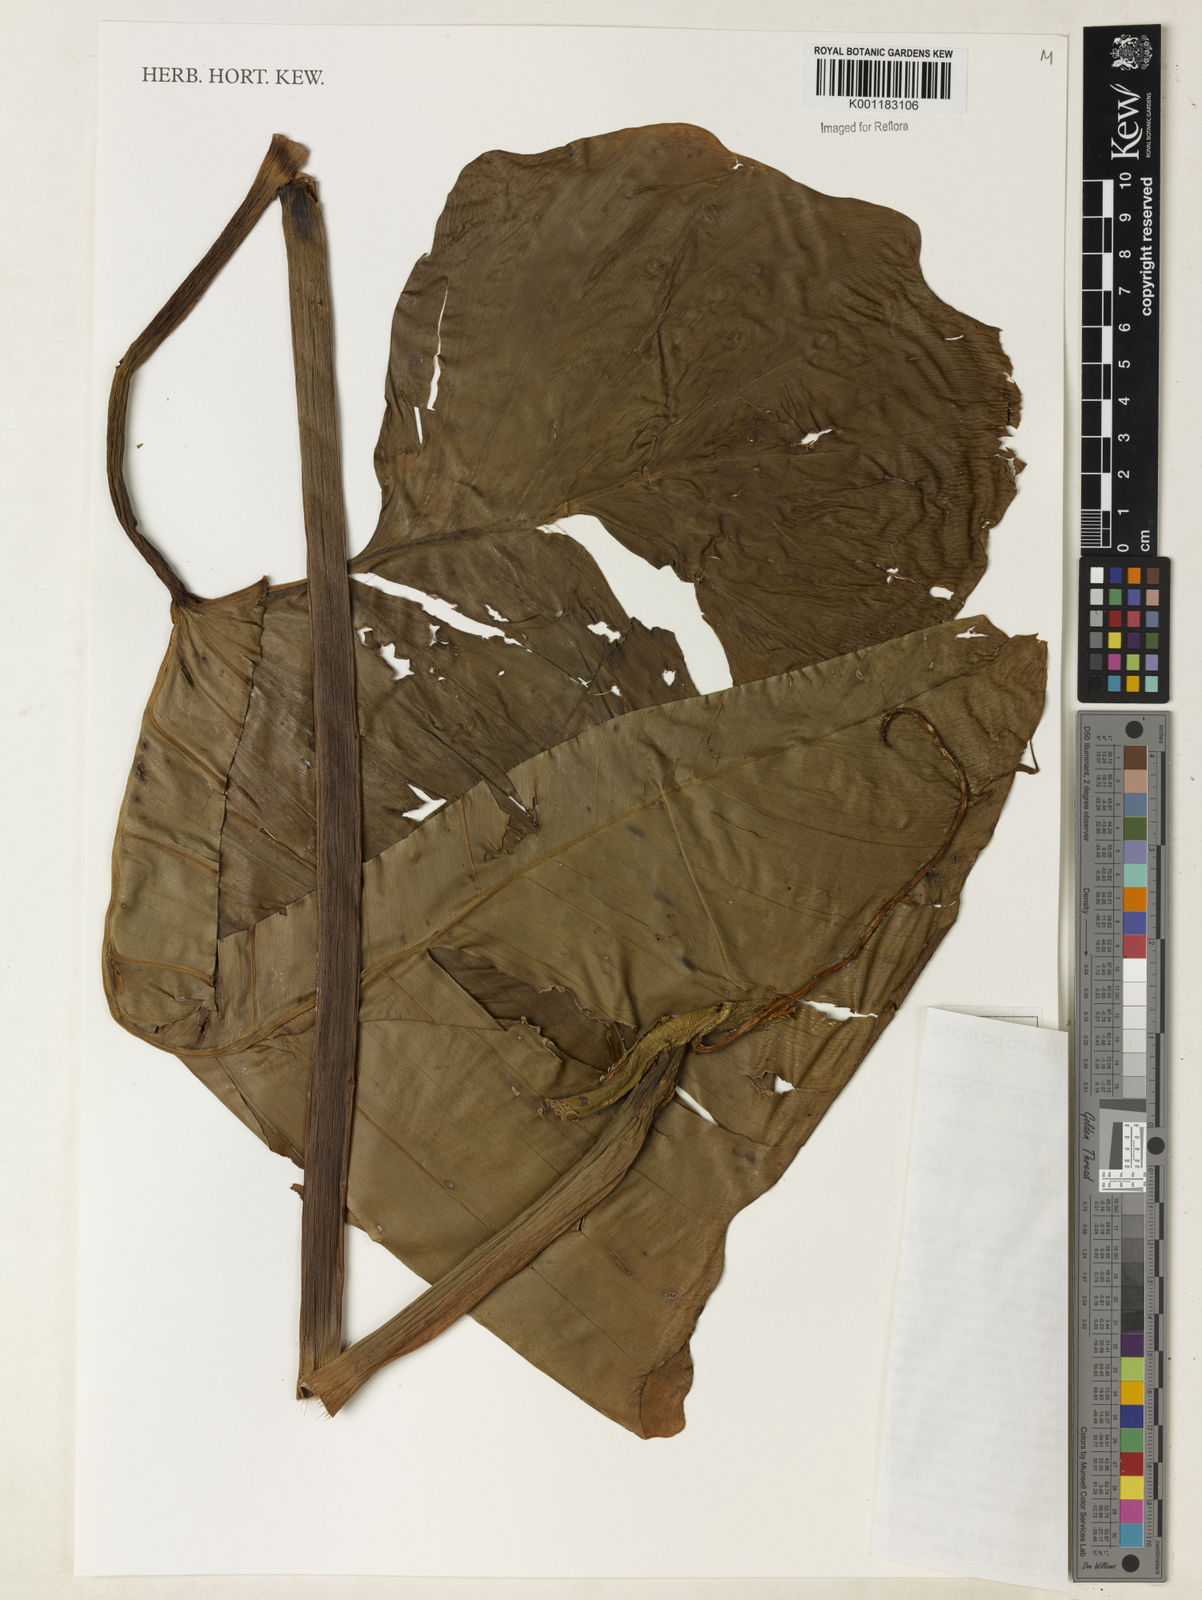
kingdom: Plantae
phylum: Tracheophyta
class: Liliopsida
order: Alismatales
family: Araceae
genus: Philodendron
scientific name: Philodendron bipennifolium
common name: Fiddle-leaf philodendron
